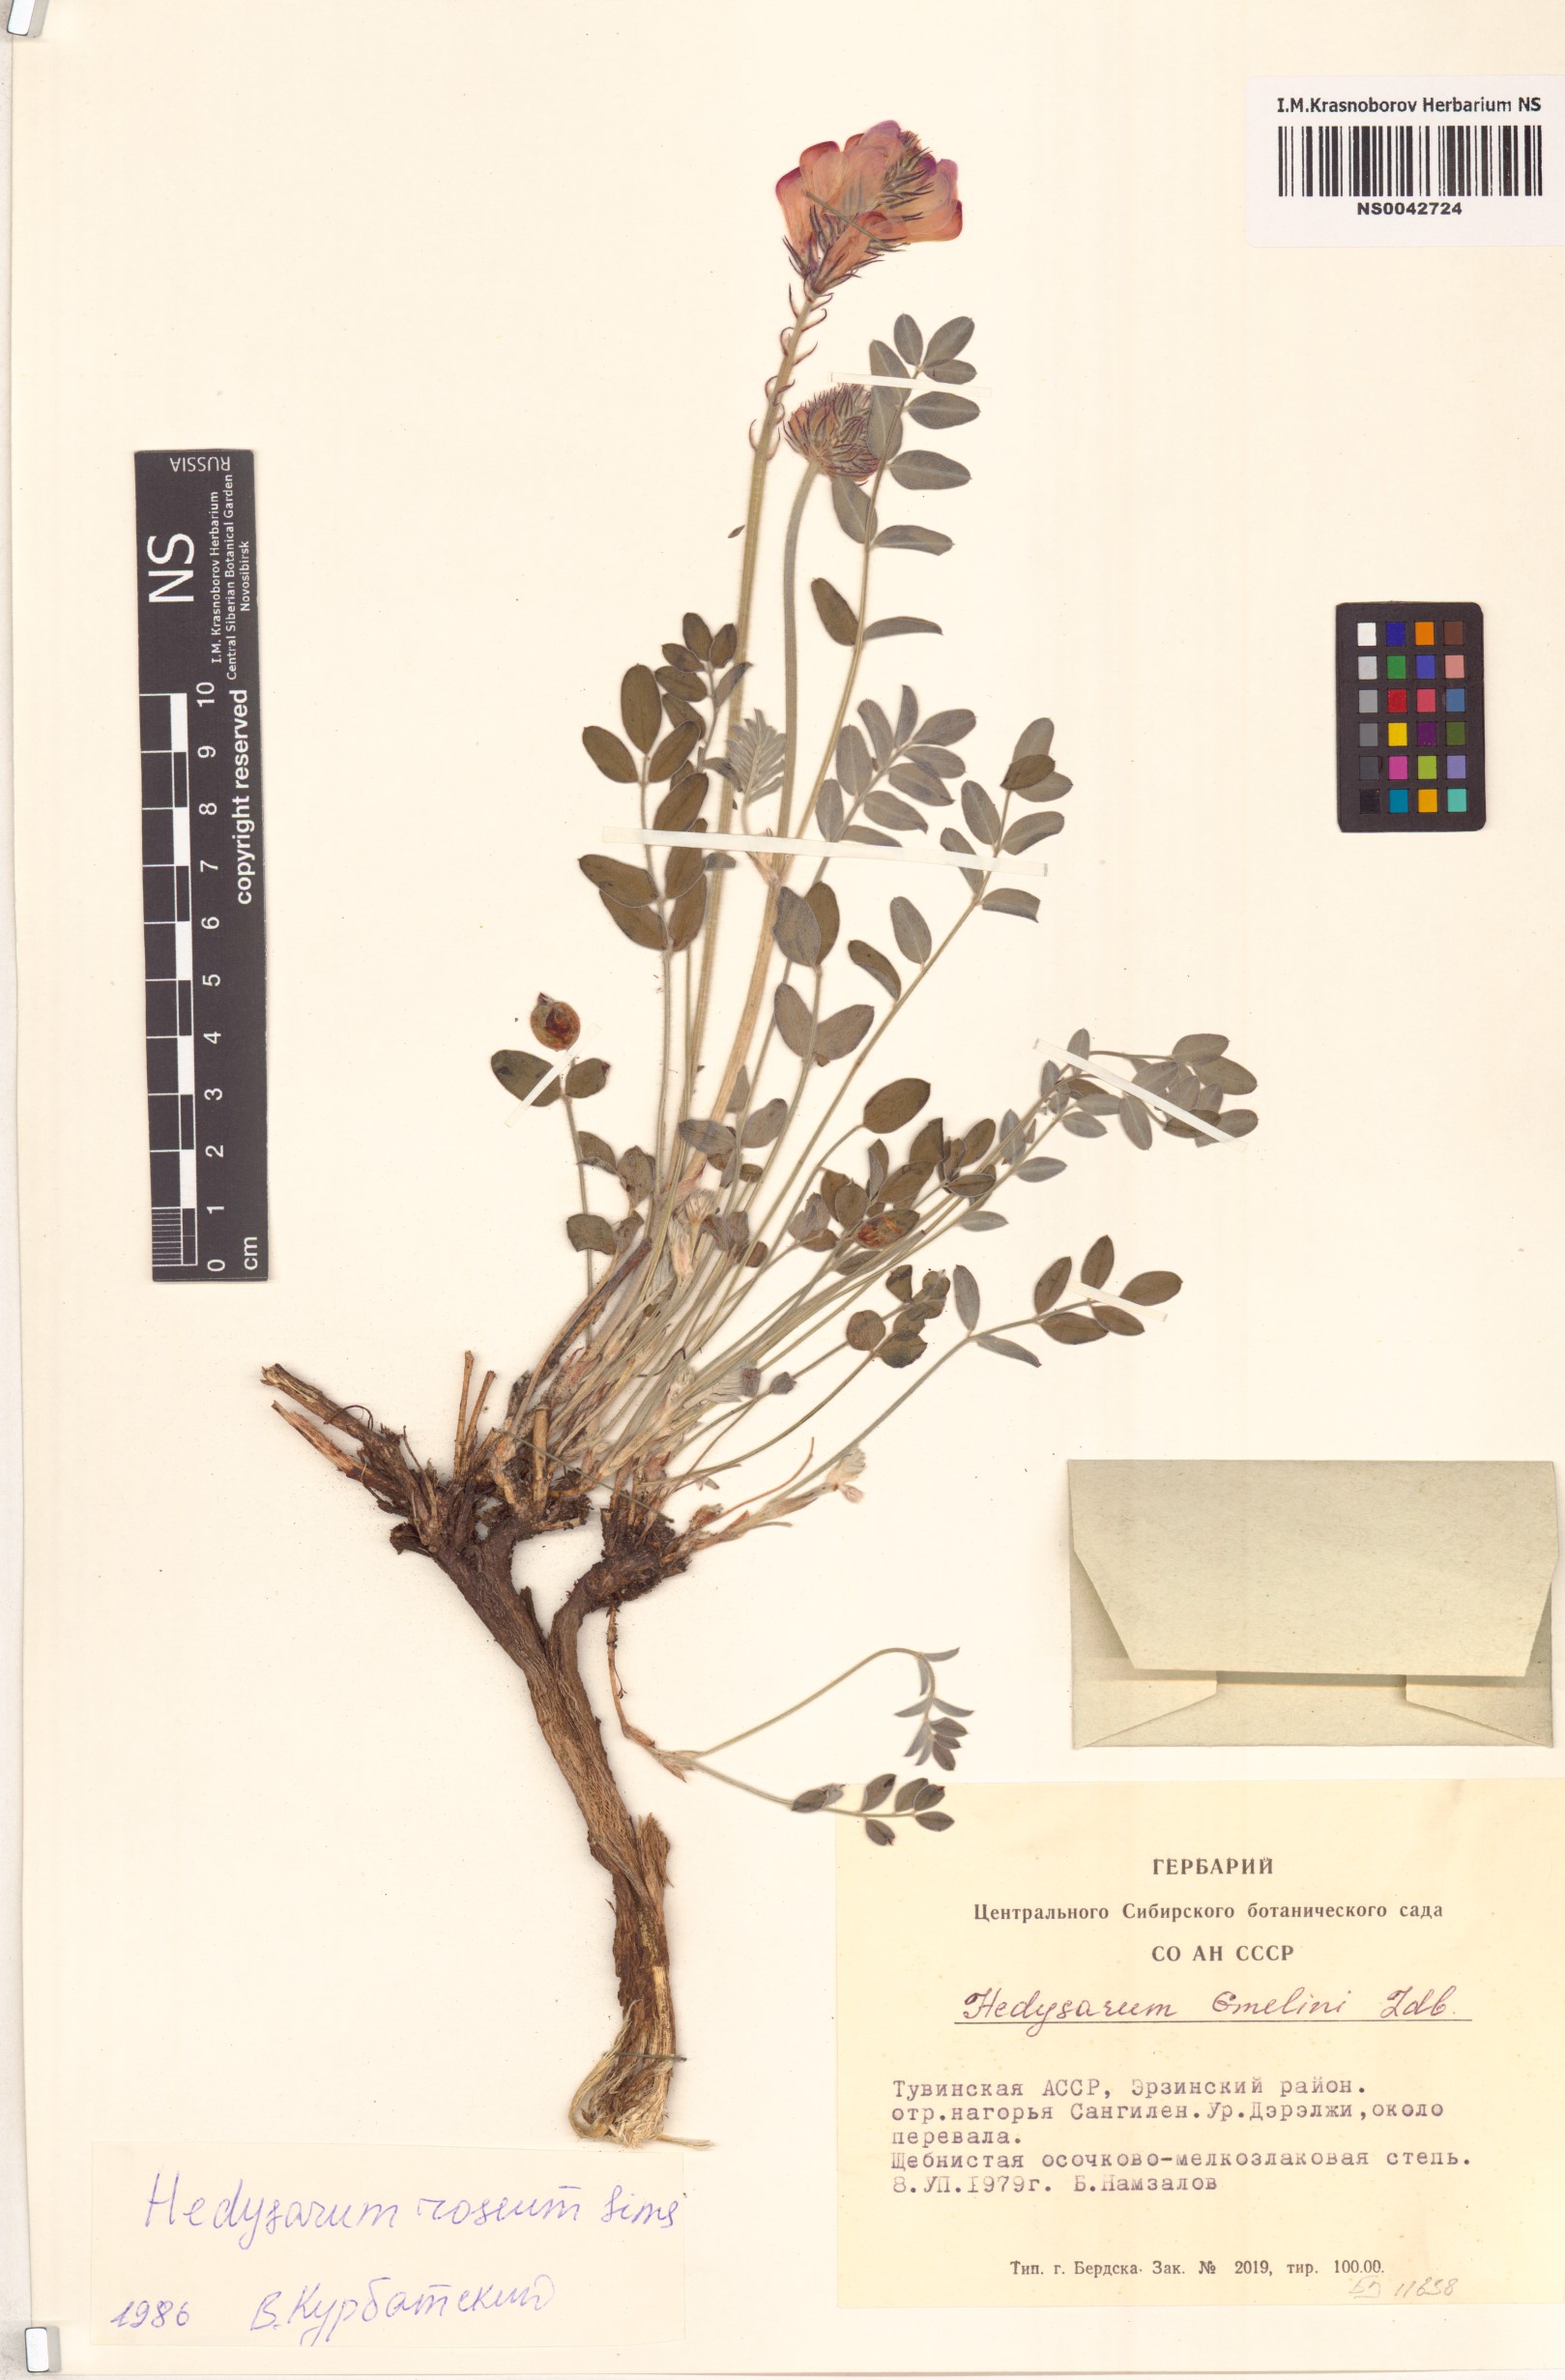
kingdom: Plantae
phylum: Tracheophyta
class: Magnoliopsida
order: Fabales
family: Fabaceae
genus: Hedysarum
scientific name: Hedysarum roseum
